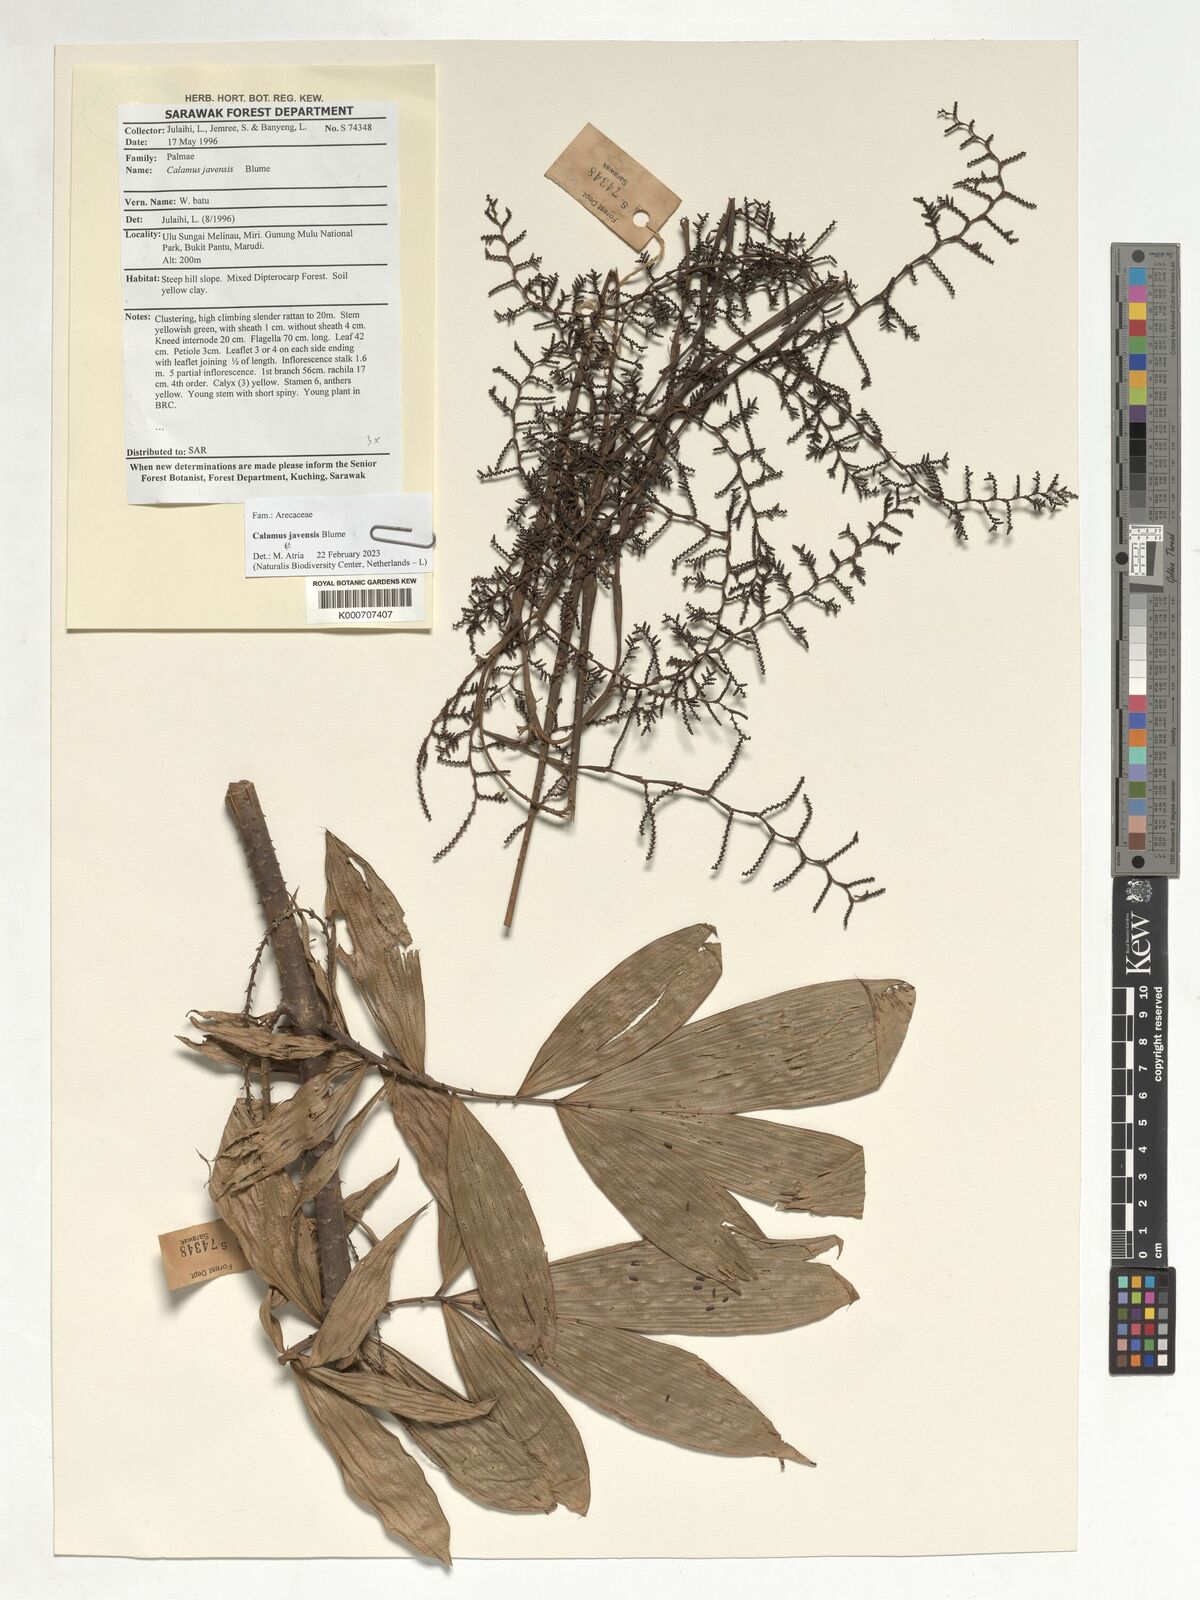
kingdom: Plantae
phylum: Tracheophyta
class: Liliopsida
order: Arecales
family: Arecaceae
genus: Calamus
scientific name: Calamus javensis
